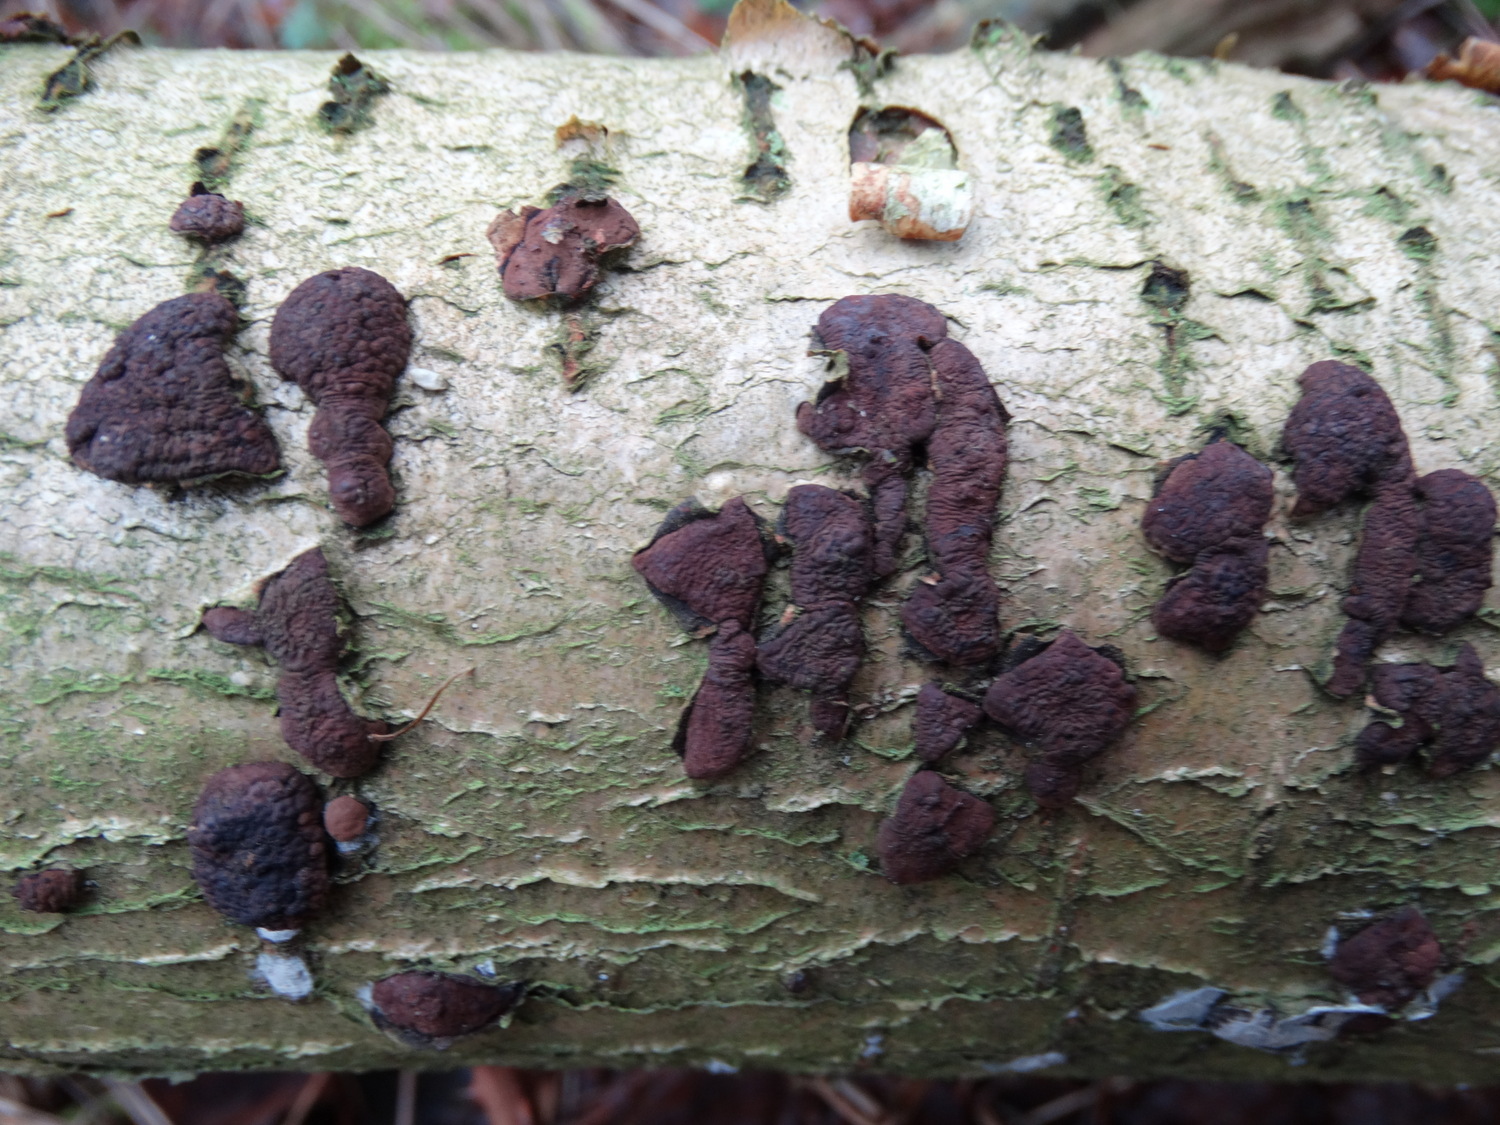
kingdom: Fungi
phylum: Ascomycota
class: Sordariomycetes
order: Xylariales
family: Hypoxylaceae
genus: Jackrogersella
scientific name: Jackrogersella multiformis
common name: foranderlig kulbær
